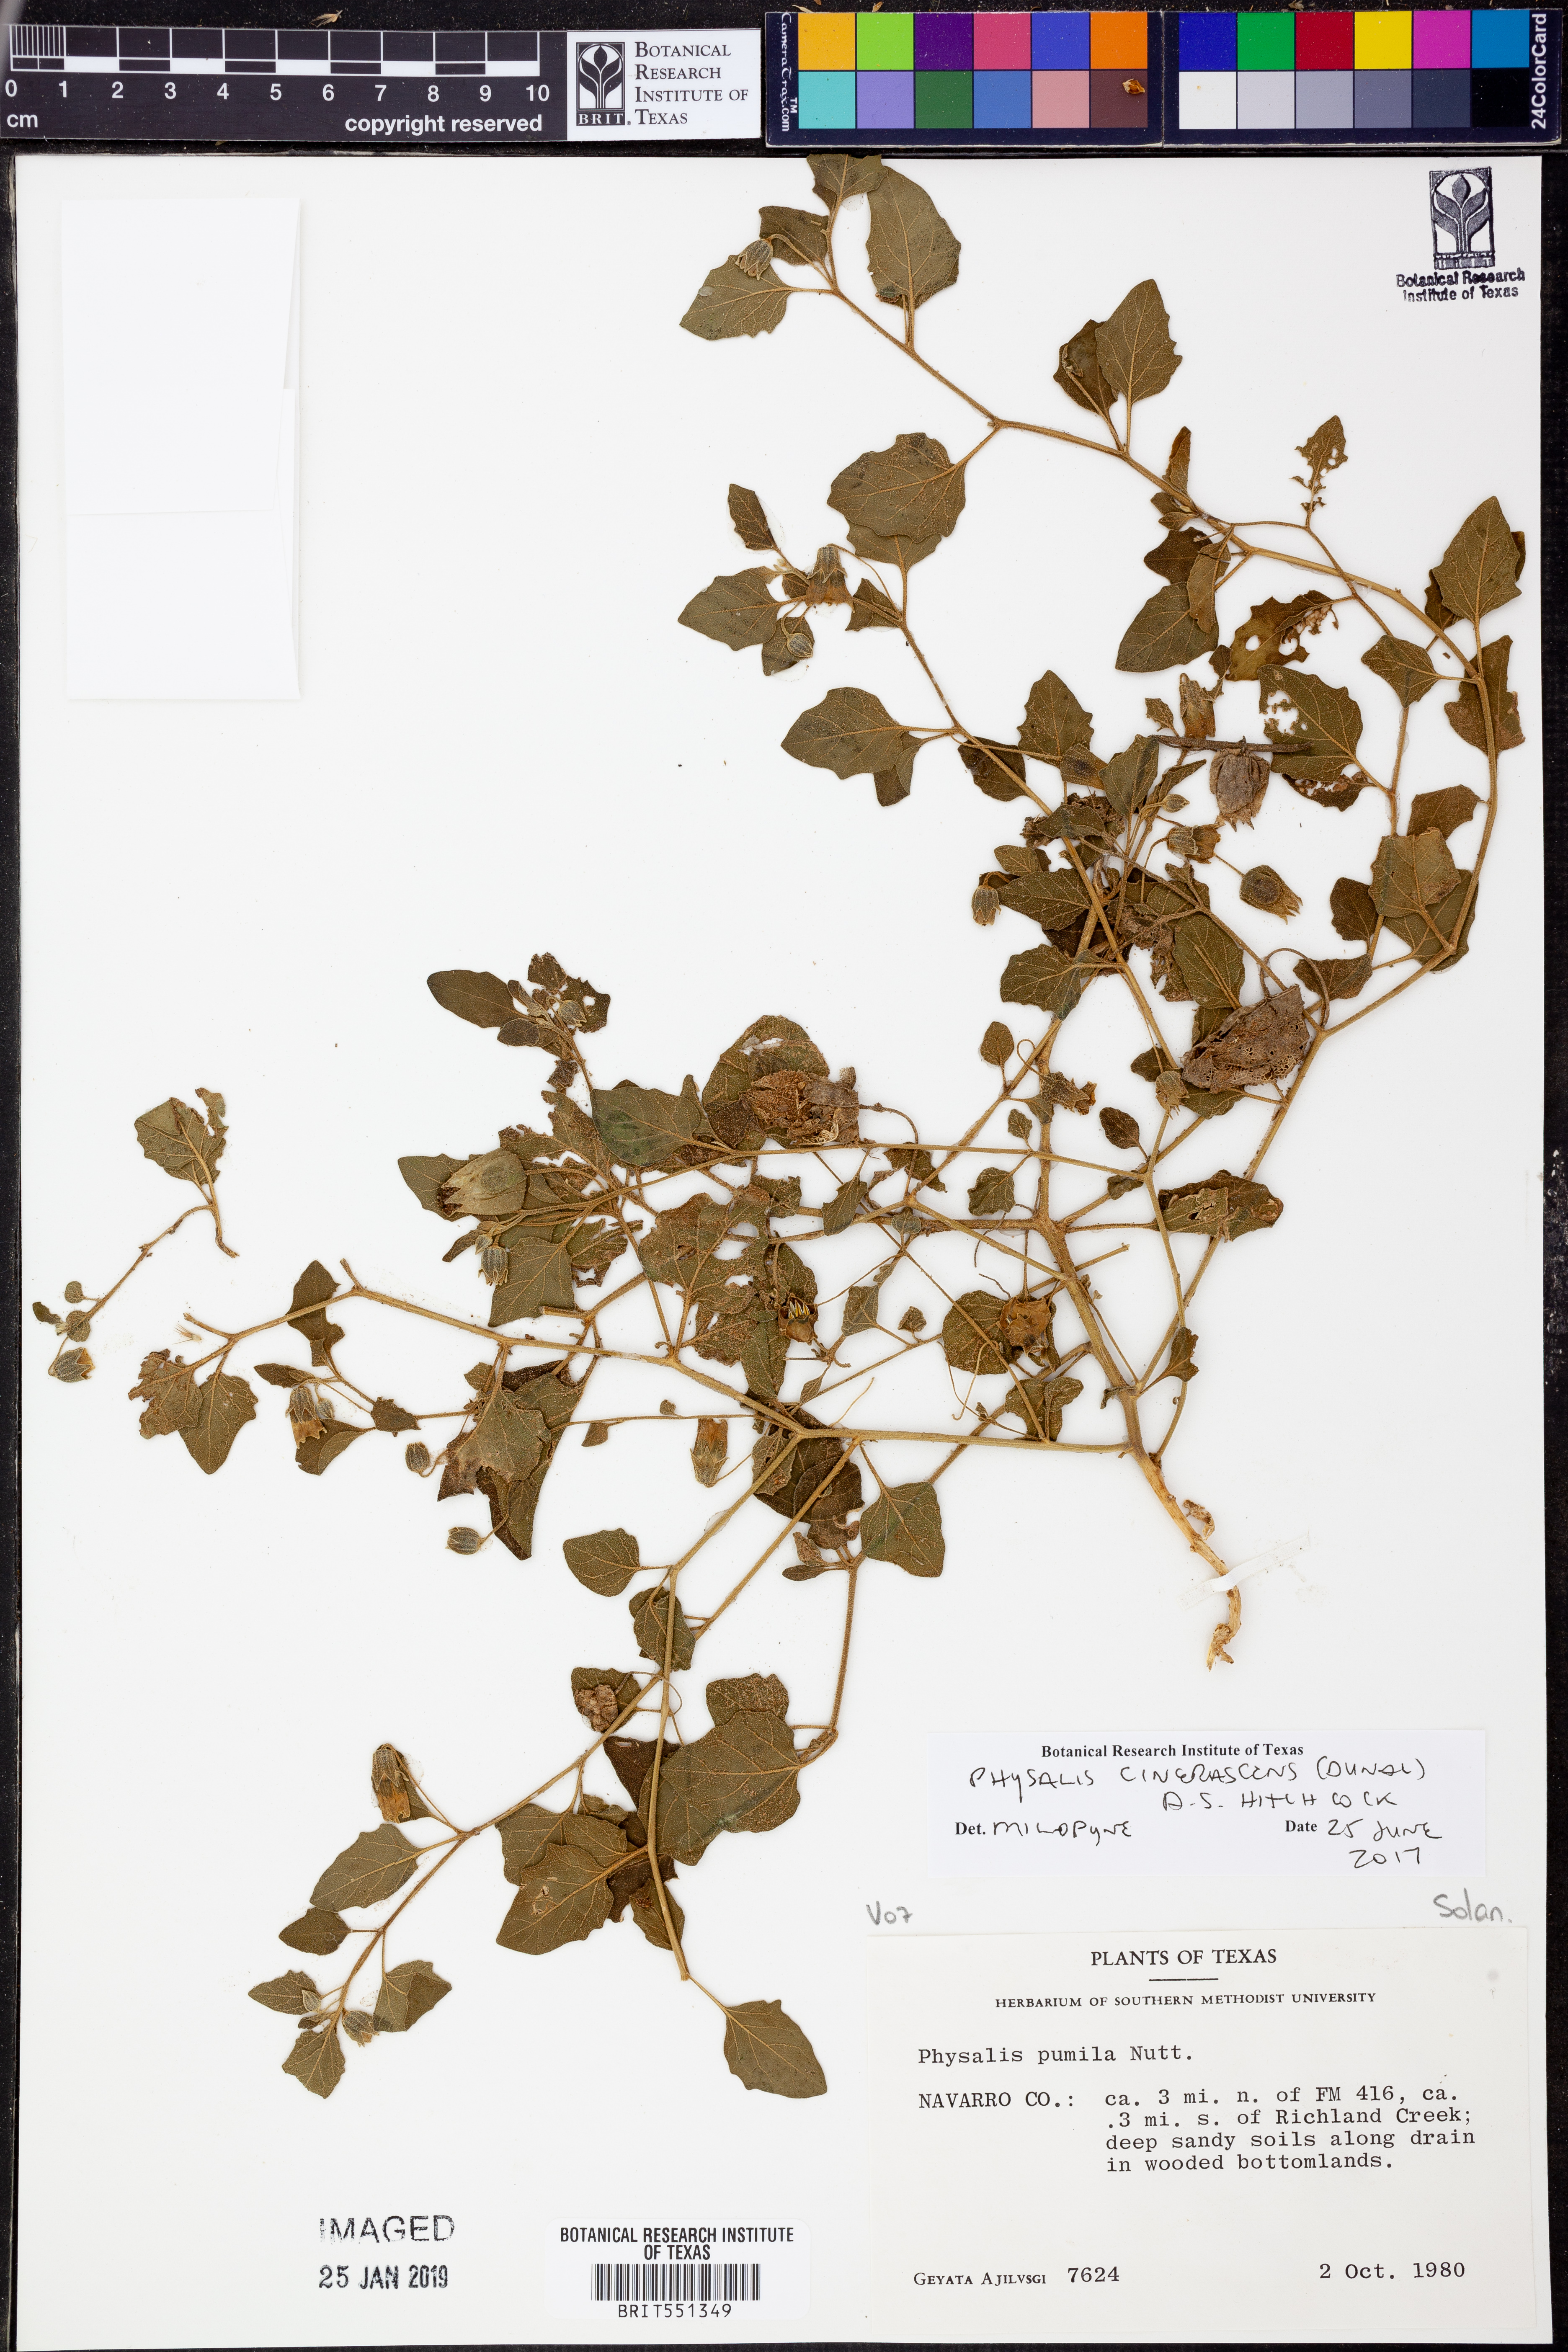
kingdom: Plantae
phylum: Tracheophyta
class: Magnoliopsida
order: Solanales
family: Solanaceae
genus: Physalis
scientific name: Physalis cinerascens
